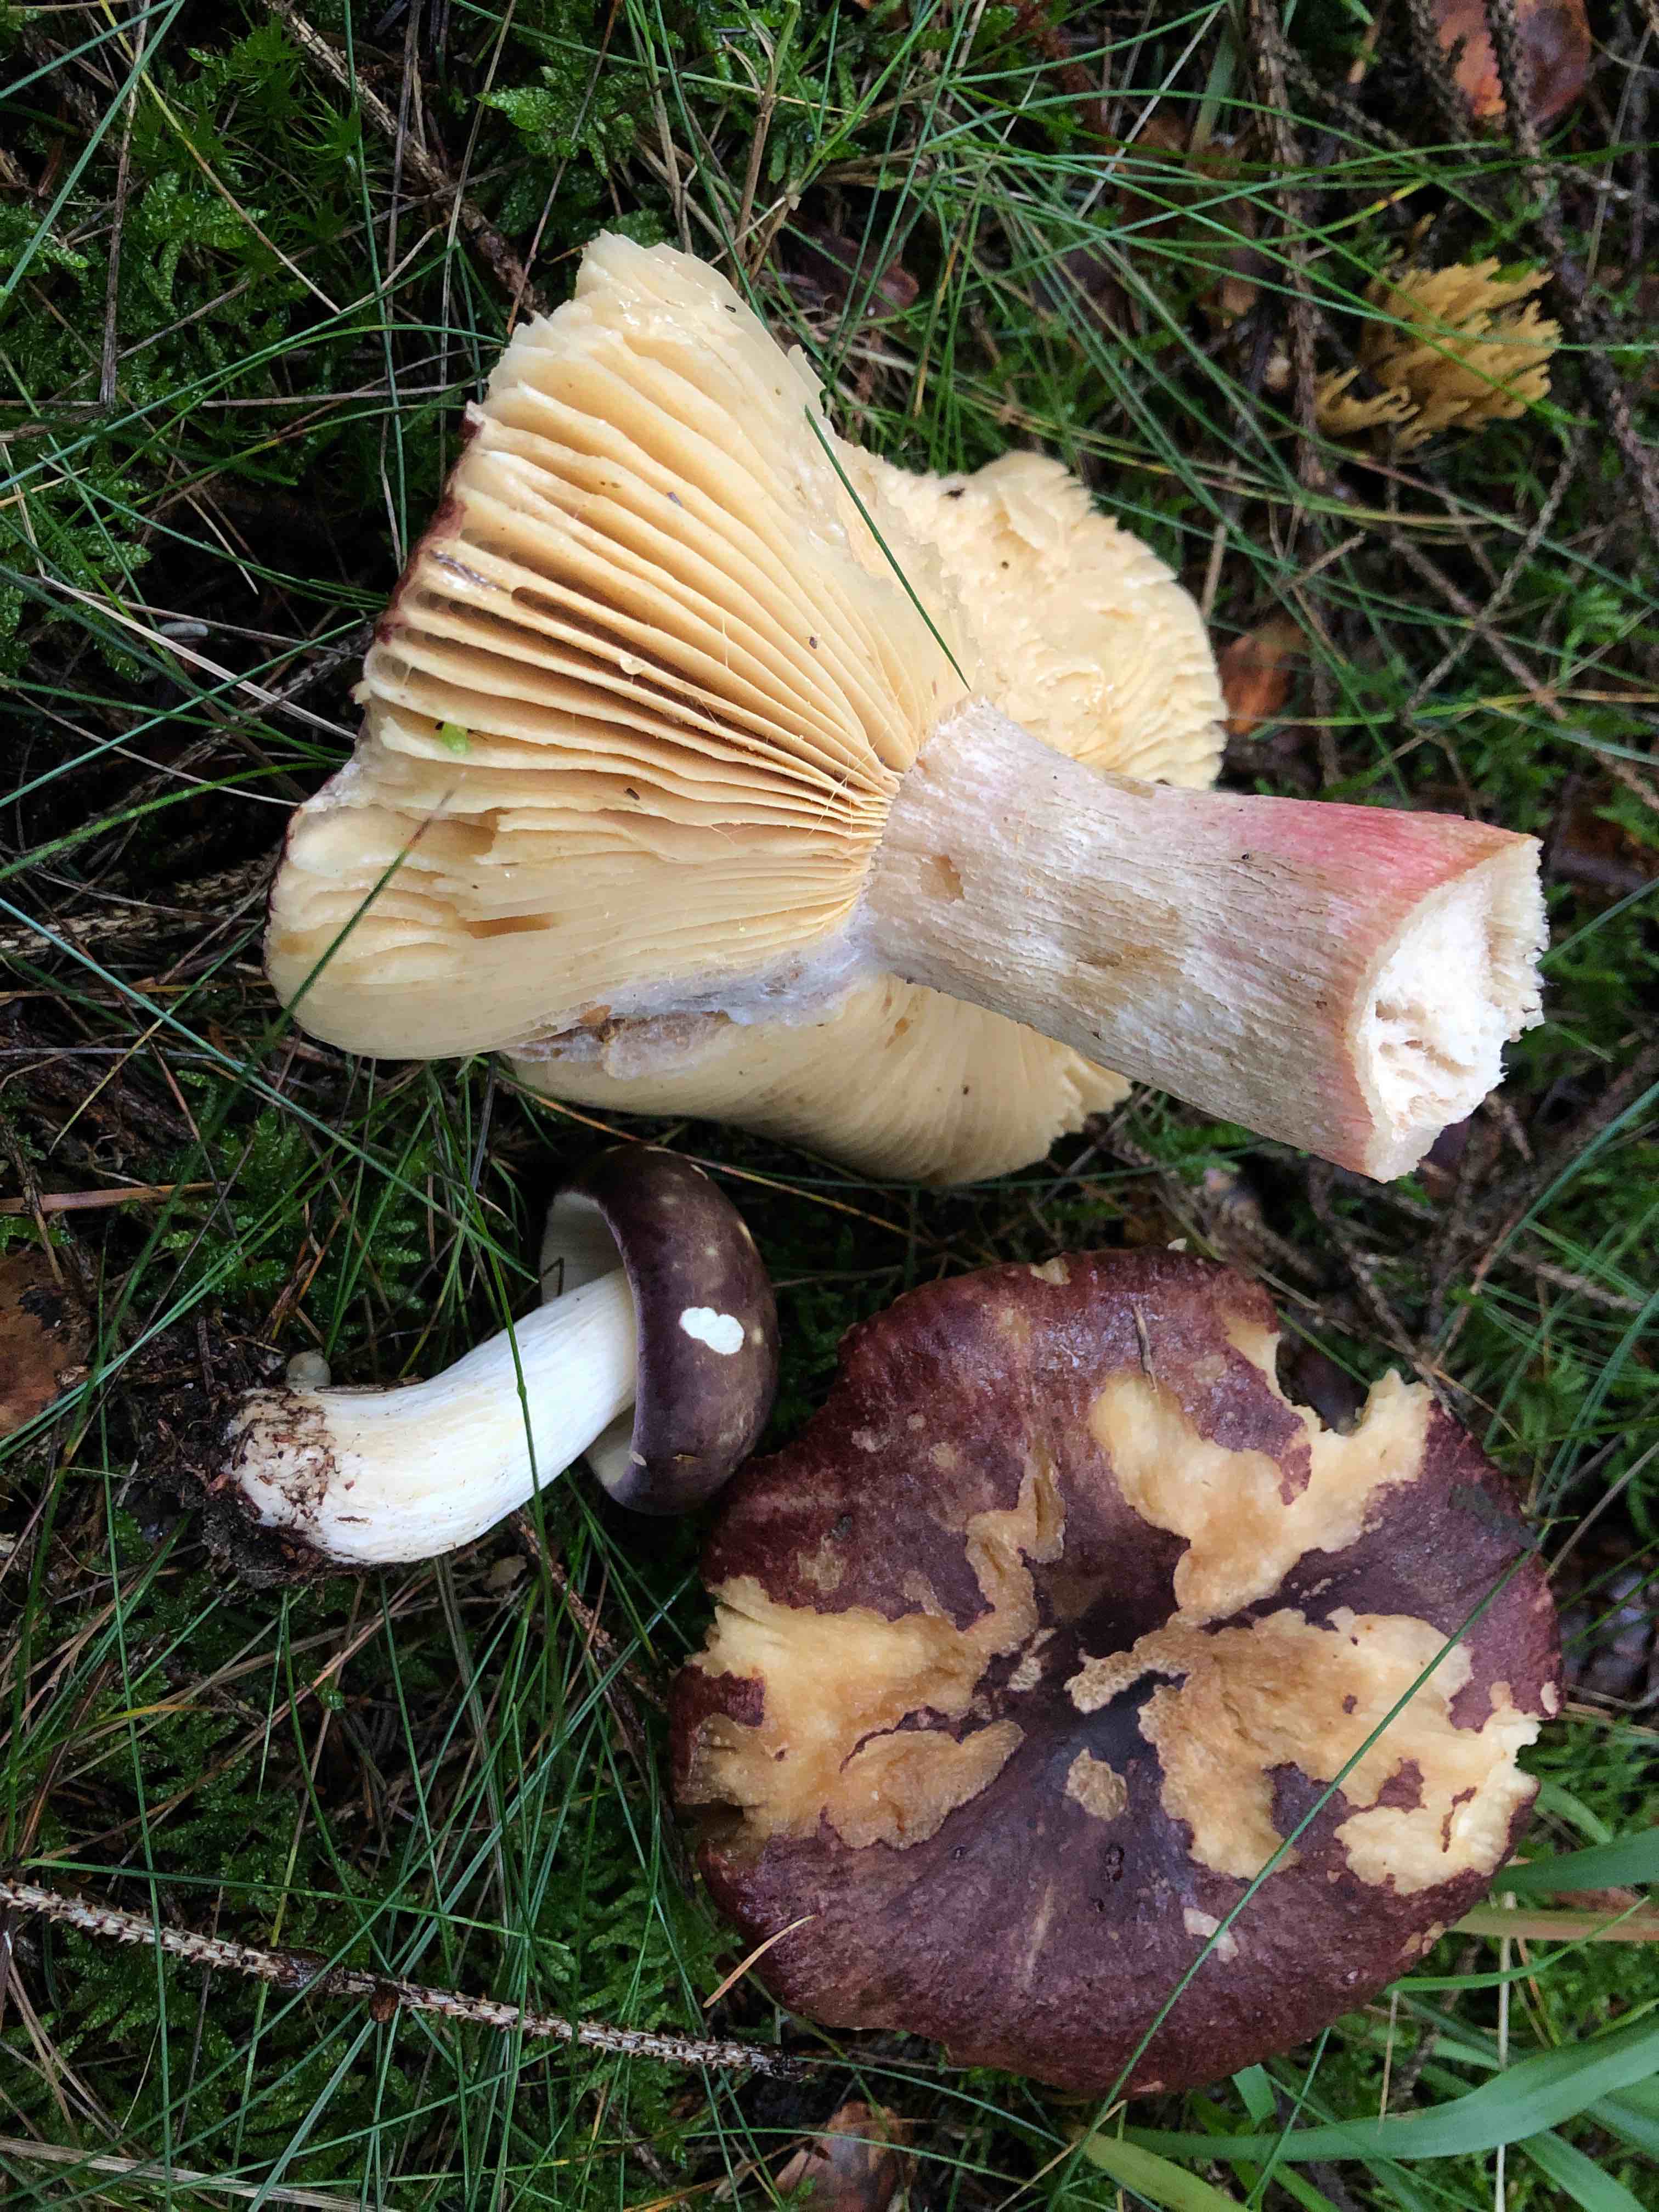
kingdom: Fungi
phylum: Basidiomycota
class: Agaricomycetes
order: Russulales
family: Russulaceae
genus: Russula
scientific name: Russula xerampelina
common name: hummer-skørhat
